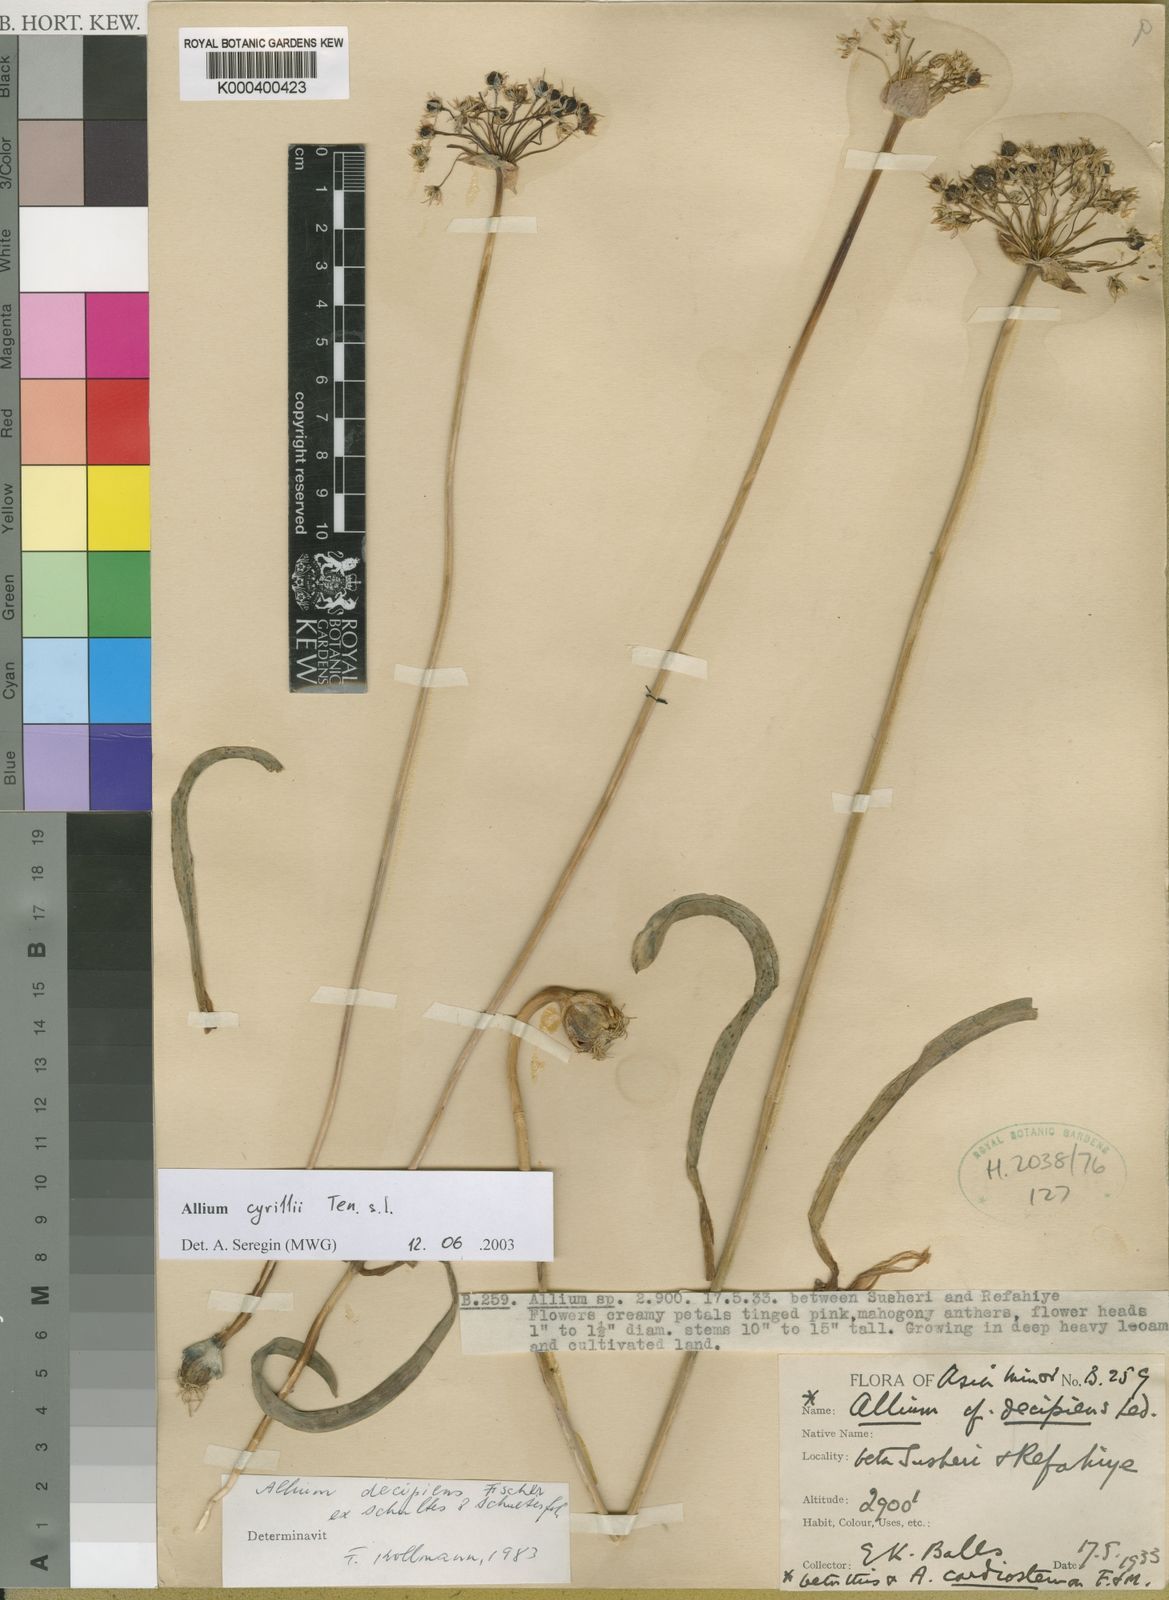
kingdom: Plantae
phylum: Tracheophyta
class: Liliopsida
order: Asparagales
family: Amaryllidaceae
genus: Allium
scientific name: Allium cyrilli
